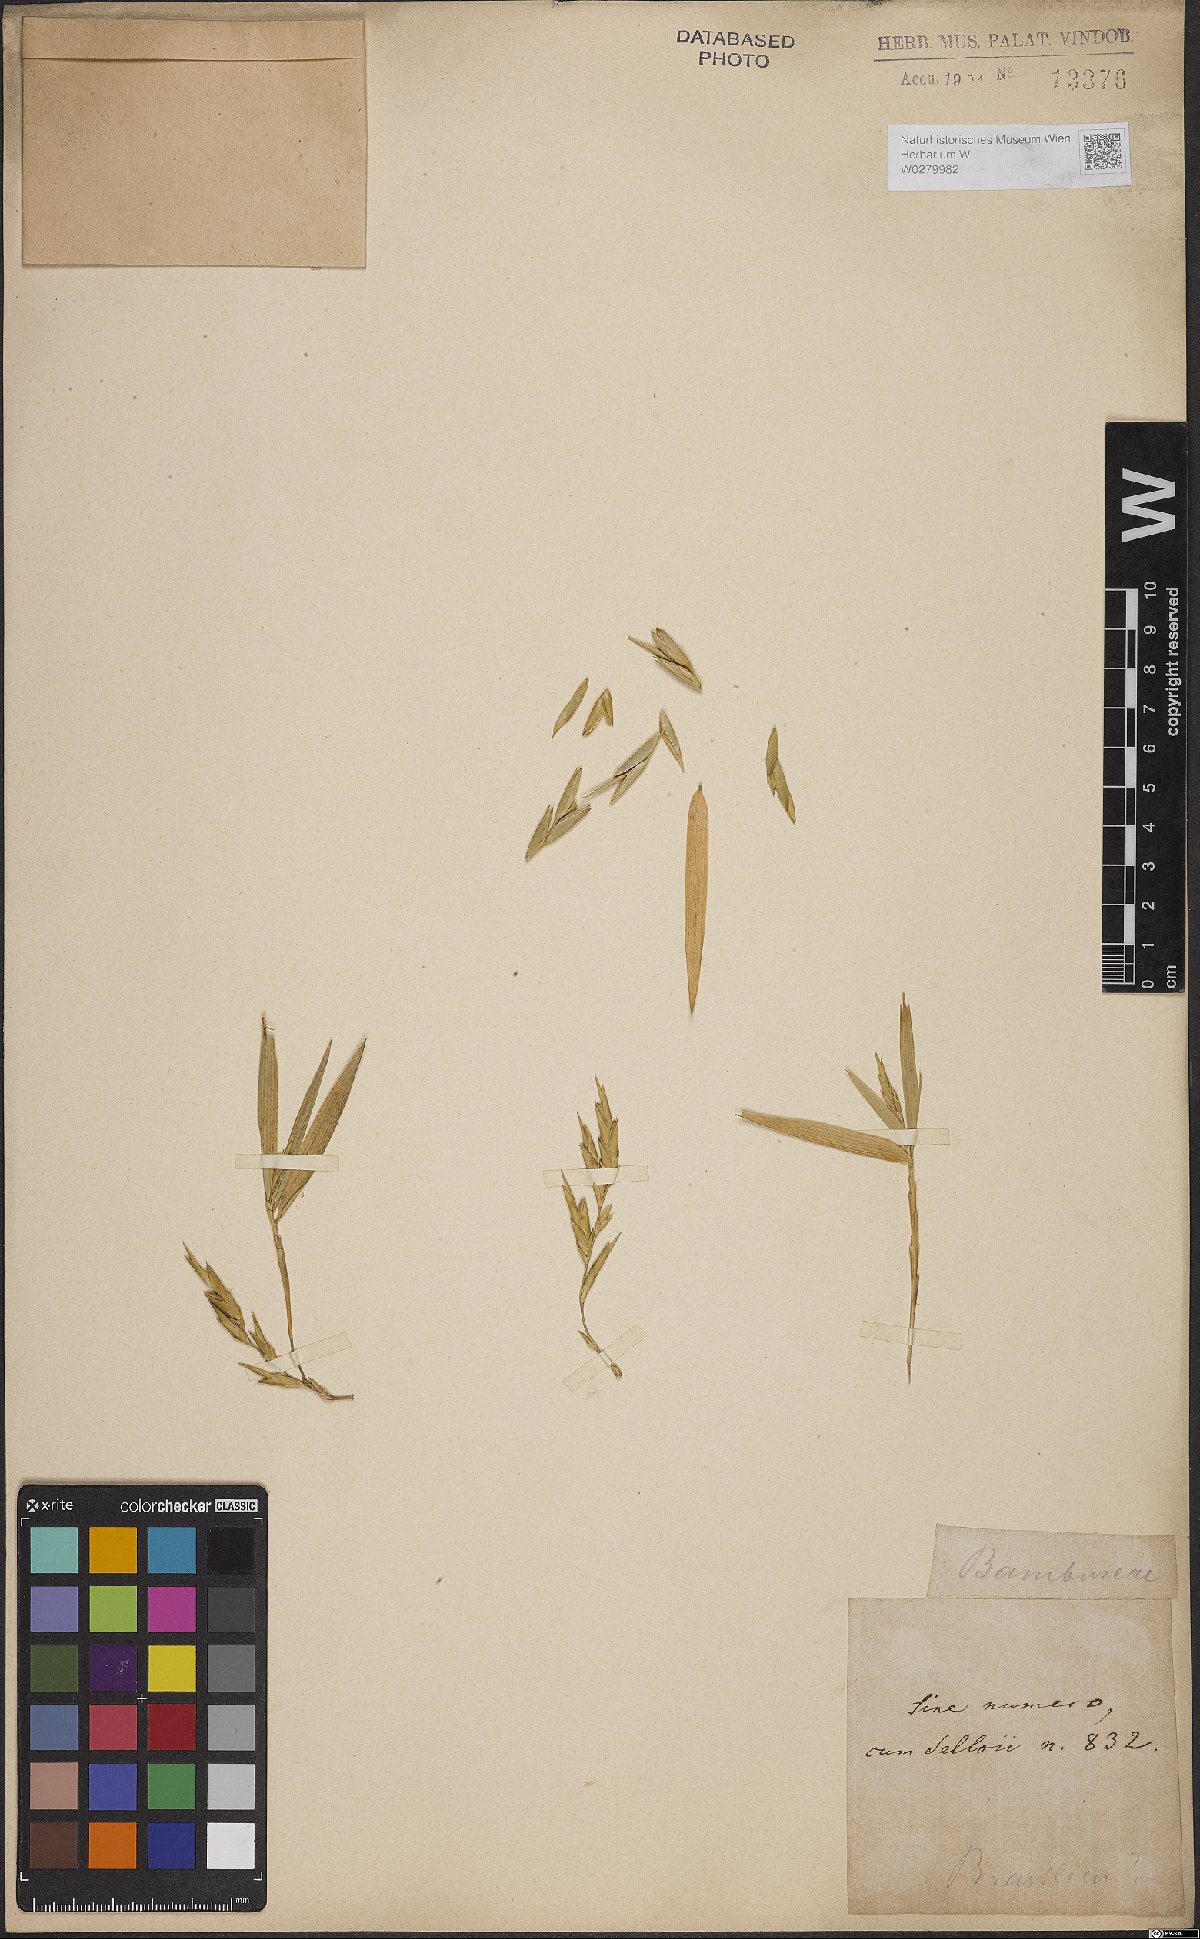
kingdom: Plantae
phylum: Tracheophyta
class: Liliopsida
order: Poales
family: Poaceae
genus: Bambusa
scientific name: Bambusa
